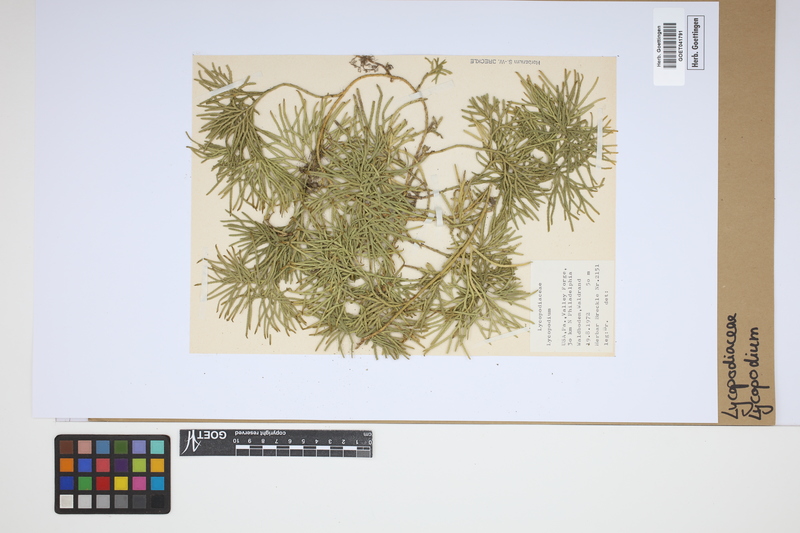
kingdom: Plantae
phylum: Tracheophyta
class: Lycopodiopsida
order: Lycopodiales
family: Lycopodiaceae
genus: Lycopodium
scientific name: Lycopodium
